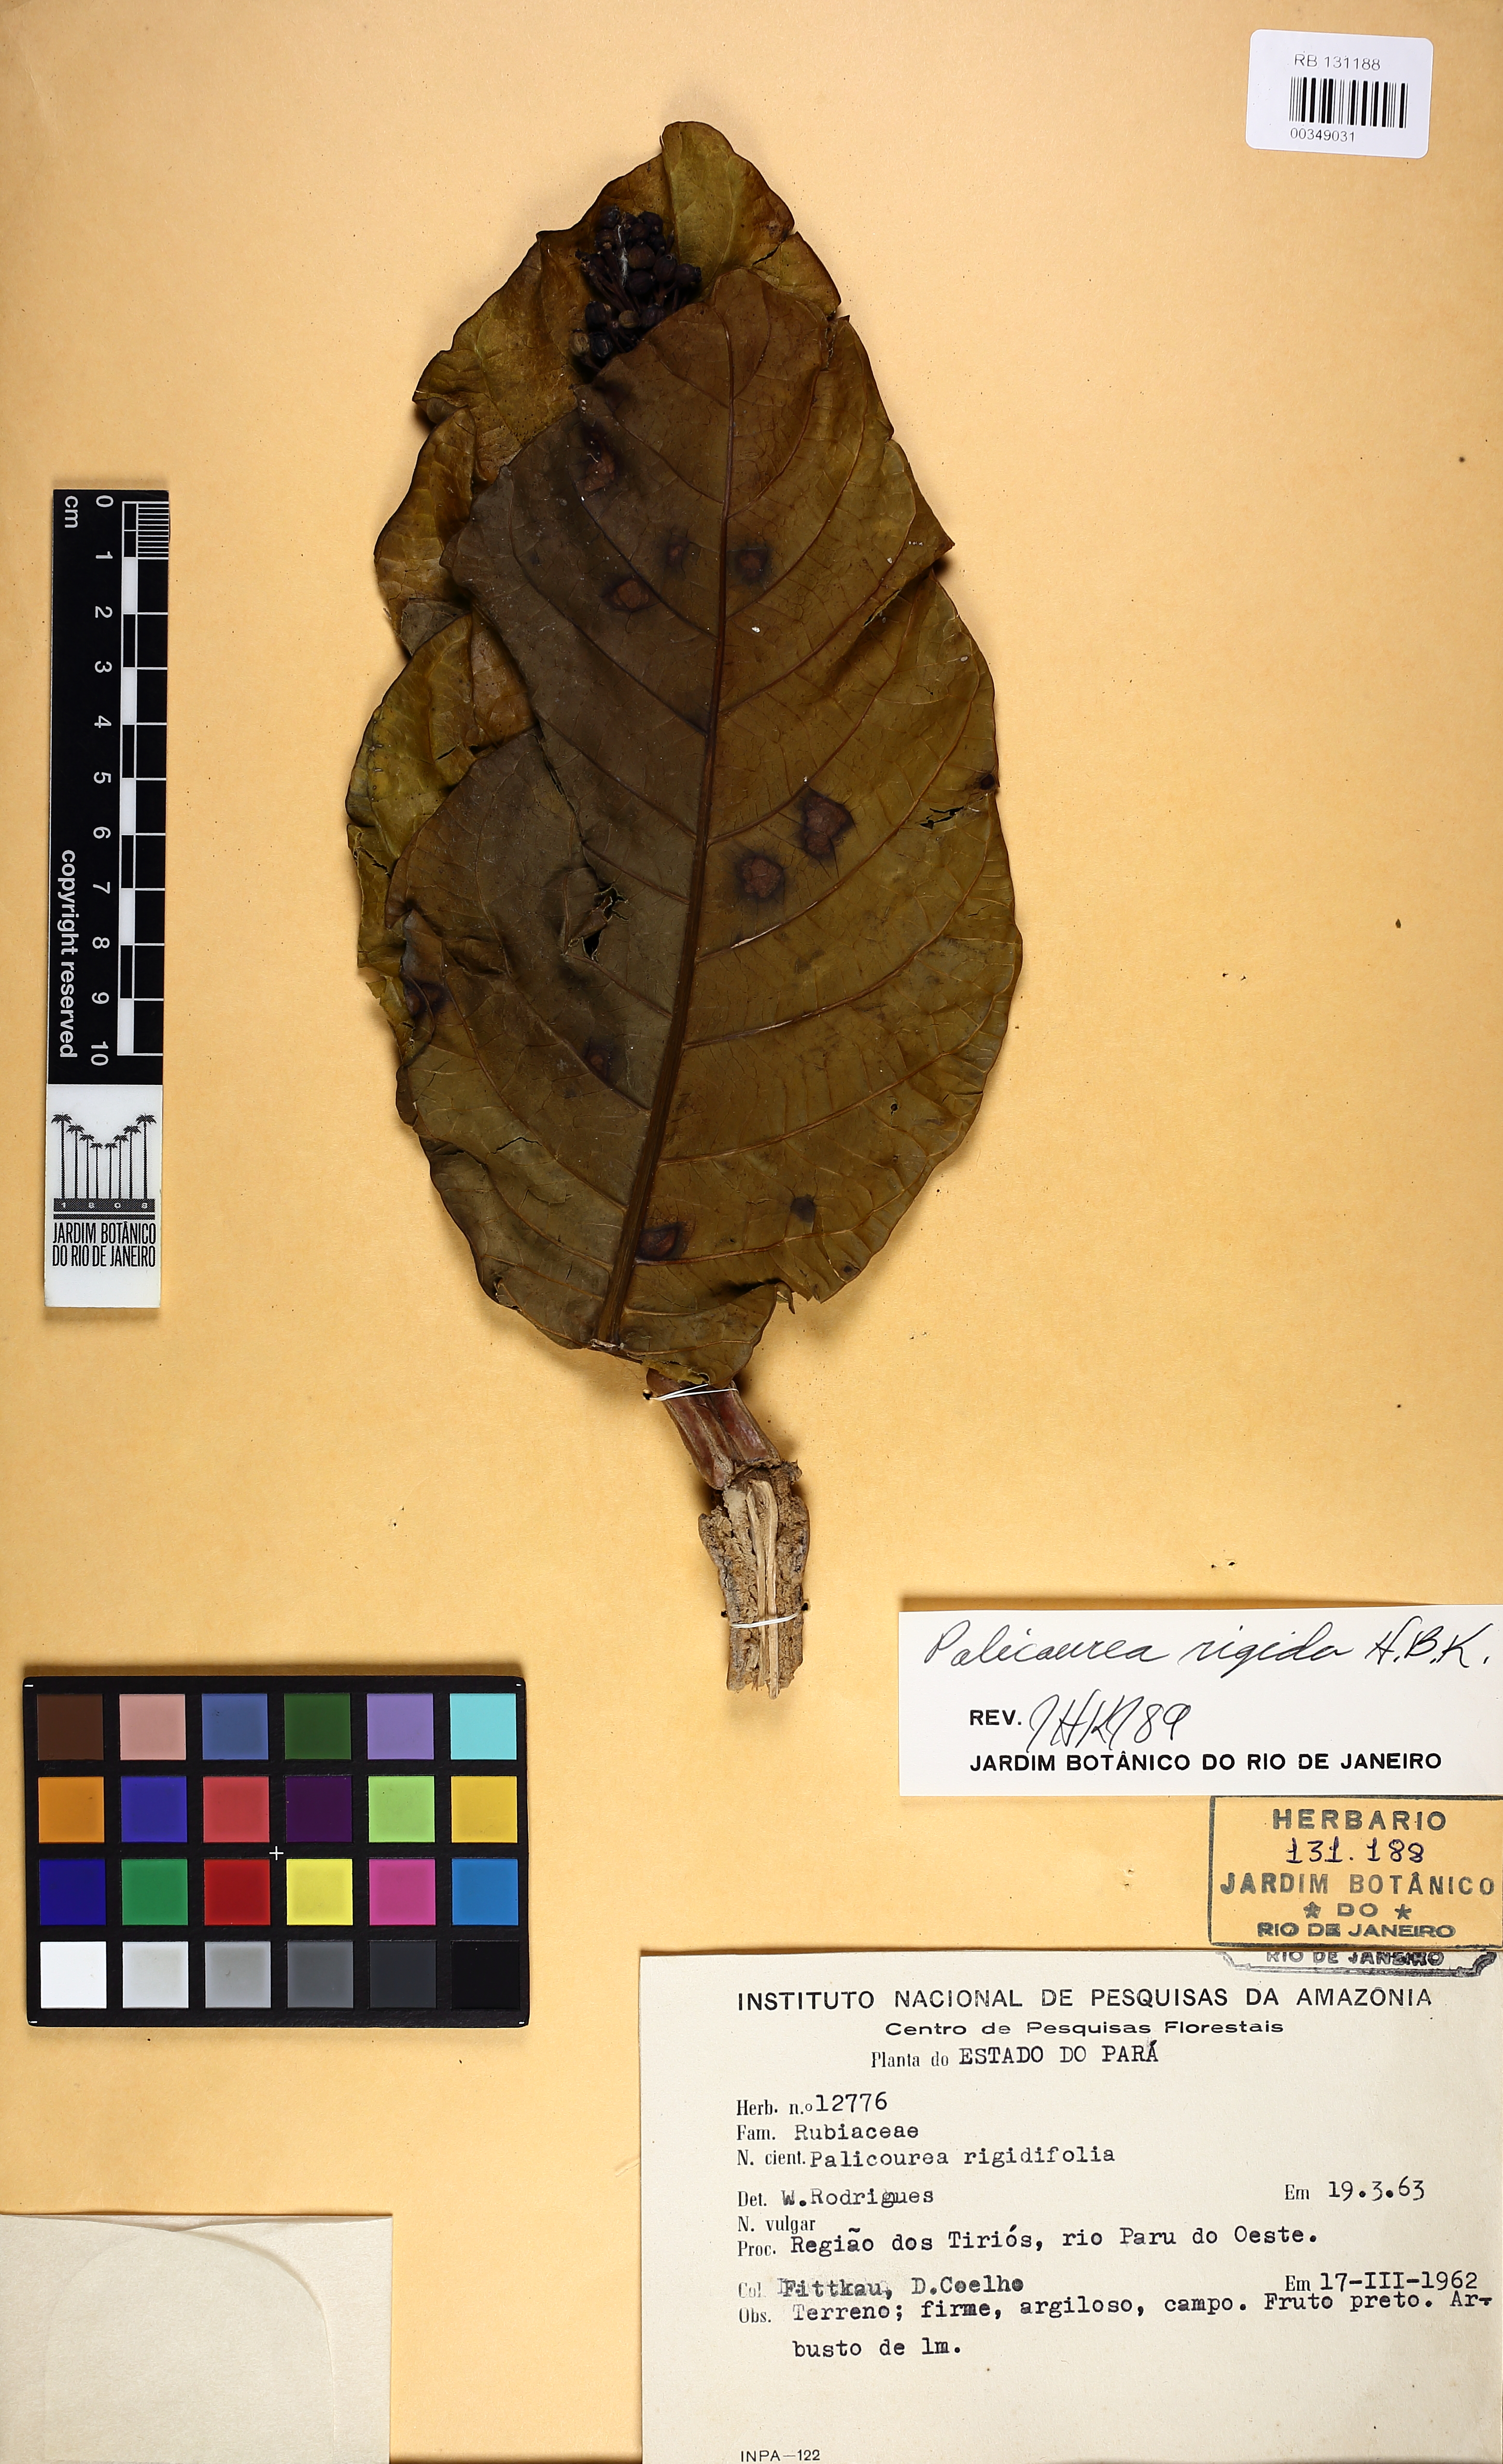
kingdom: Plantae
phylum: Tracheophyta
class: Magnoliopsida
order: Gentianales
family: Rubiaceae
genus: Palicourea
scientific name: Palicourea rigida
